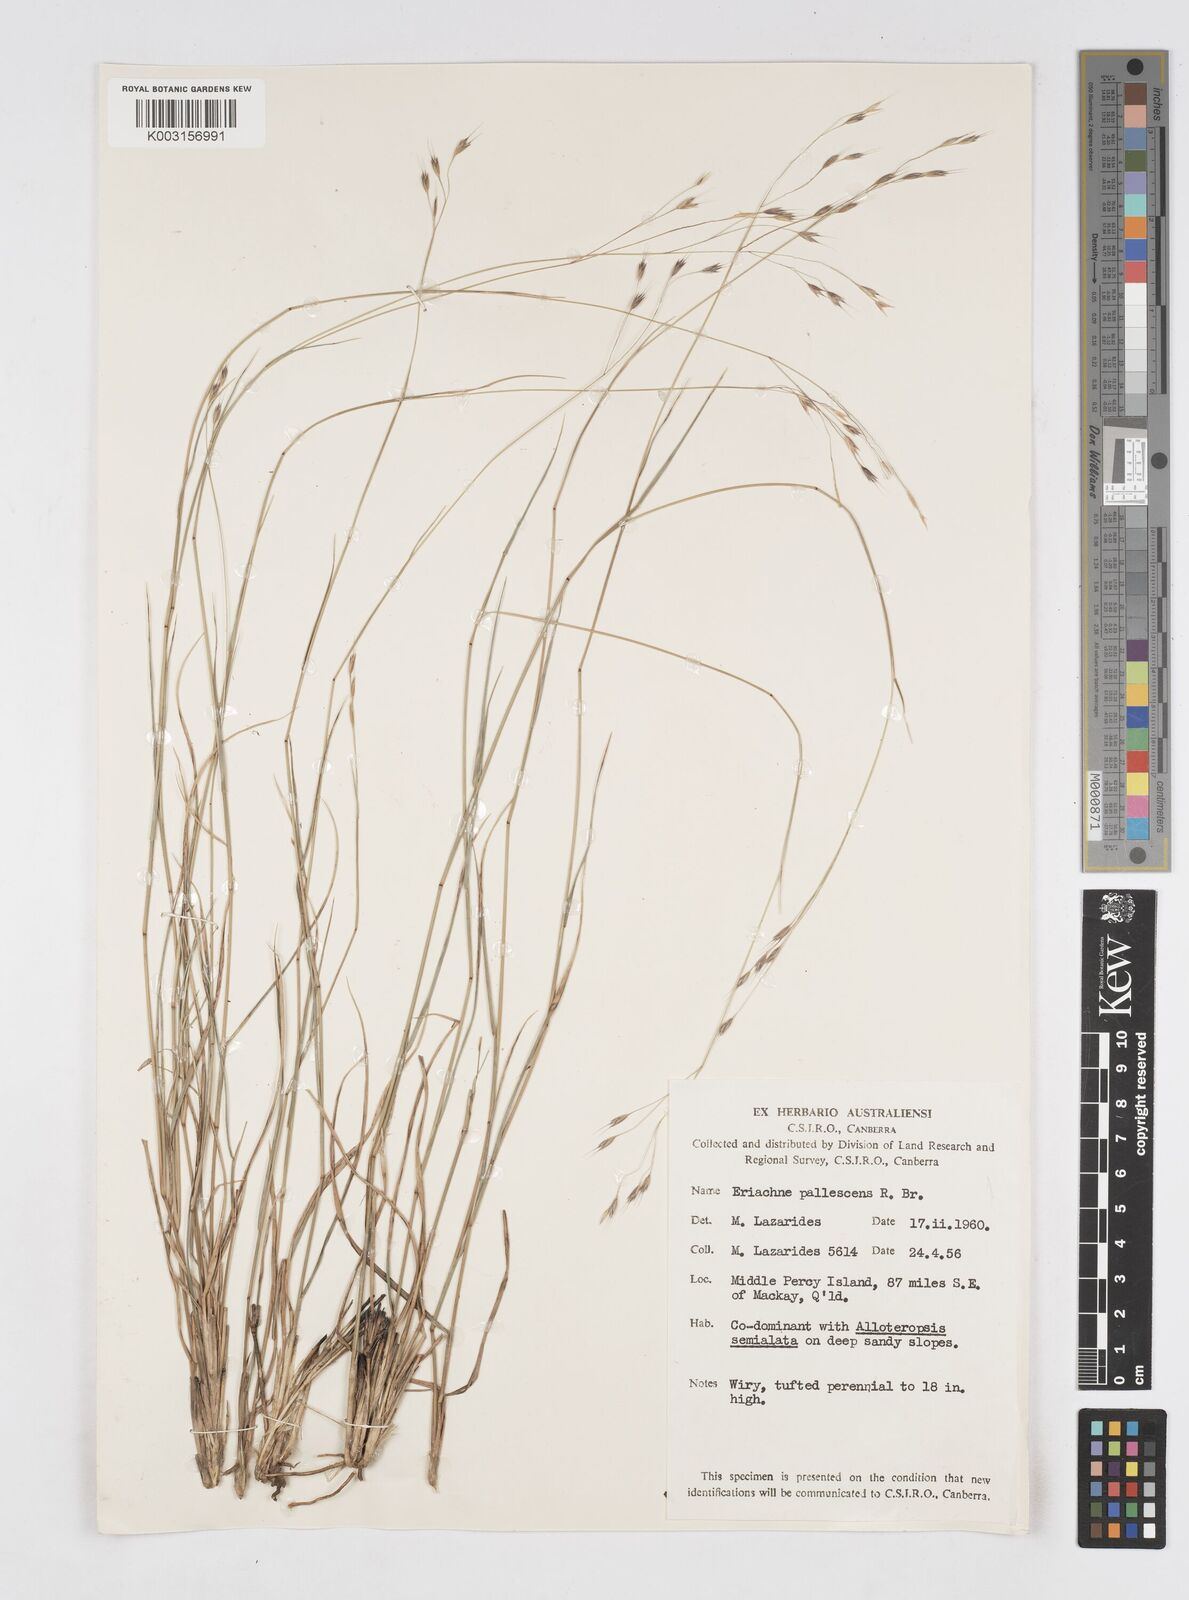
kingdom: Plantae
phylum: Tracheophyta
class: Liliopsida
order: Poales
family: Poaceae
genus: Eriachne
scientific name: Eriachne pallescens
